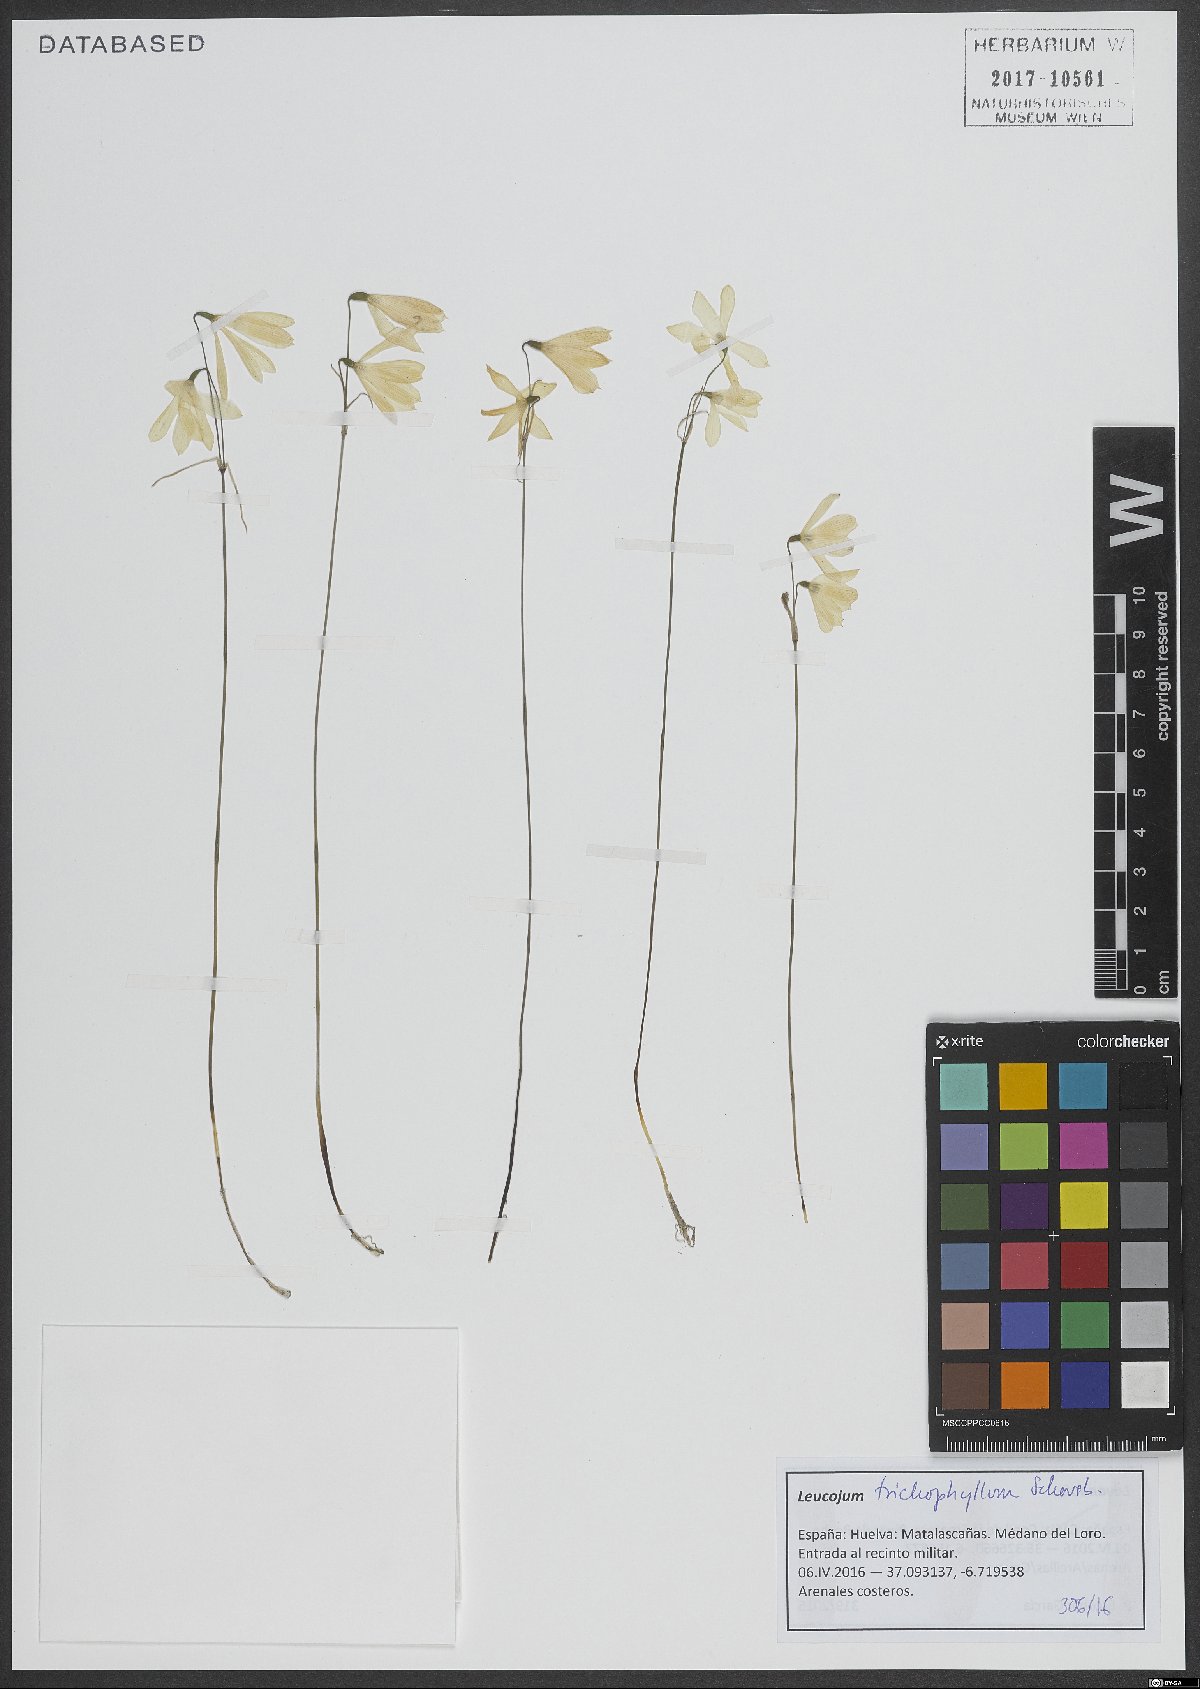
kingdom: Plantae
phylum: Tracheophyta
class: Liliopsida
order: Asparagales
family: Amaryllidaceae
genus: Acis
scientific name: Acis trichophylla
